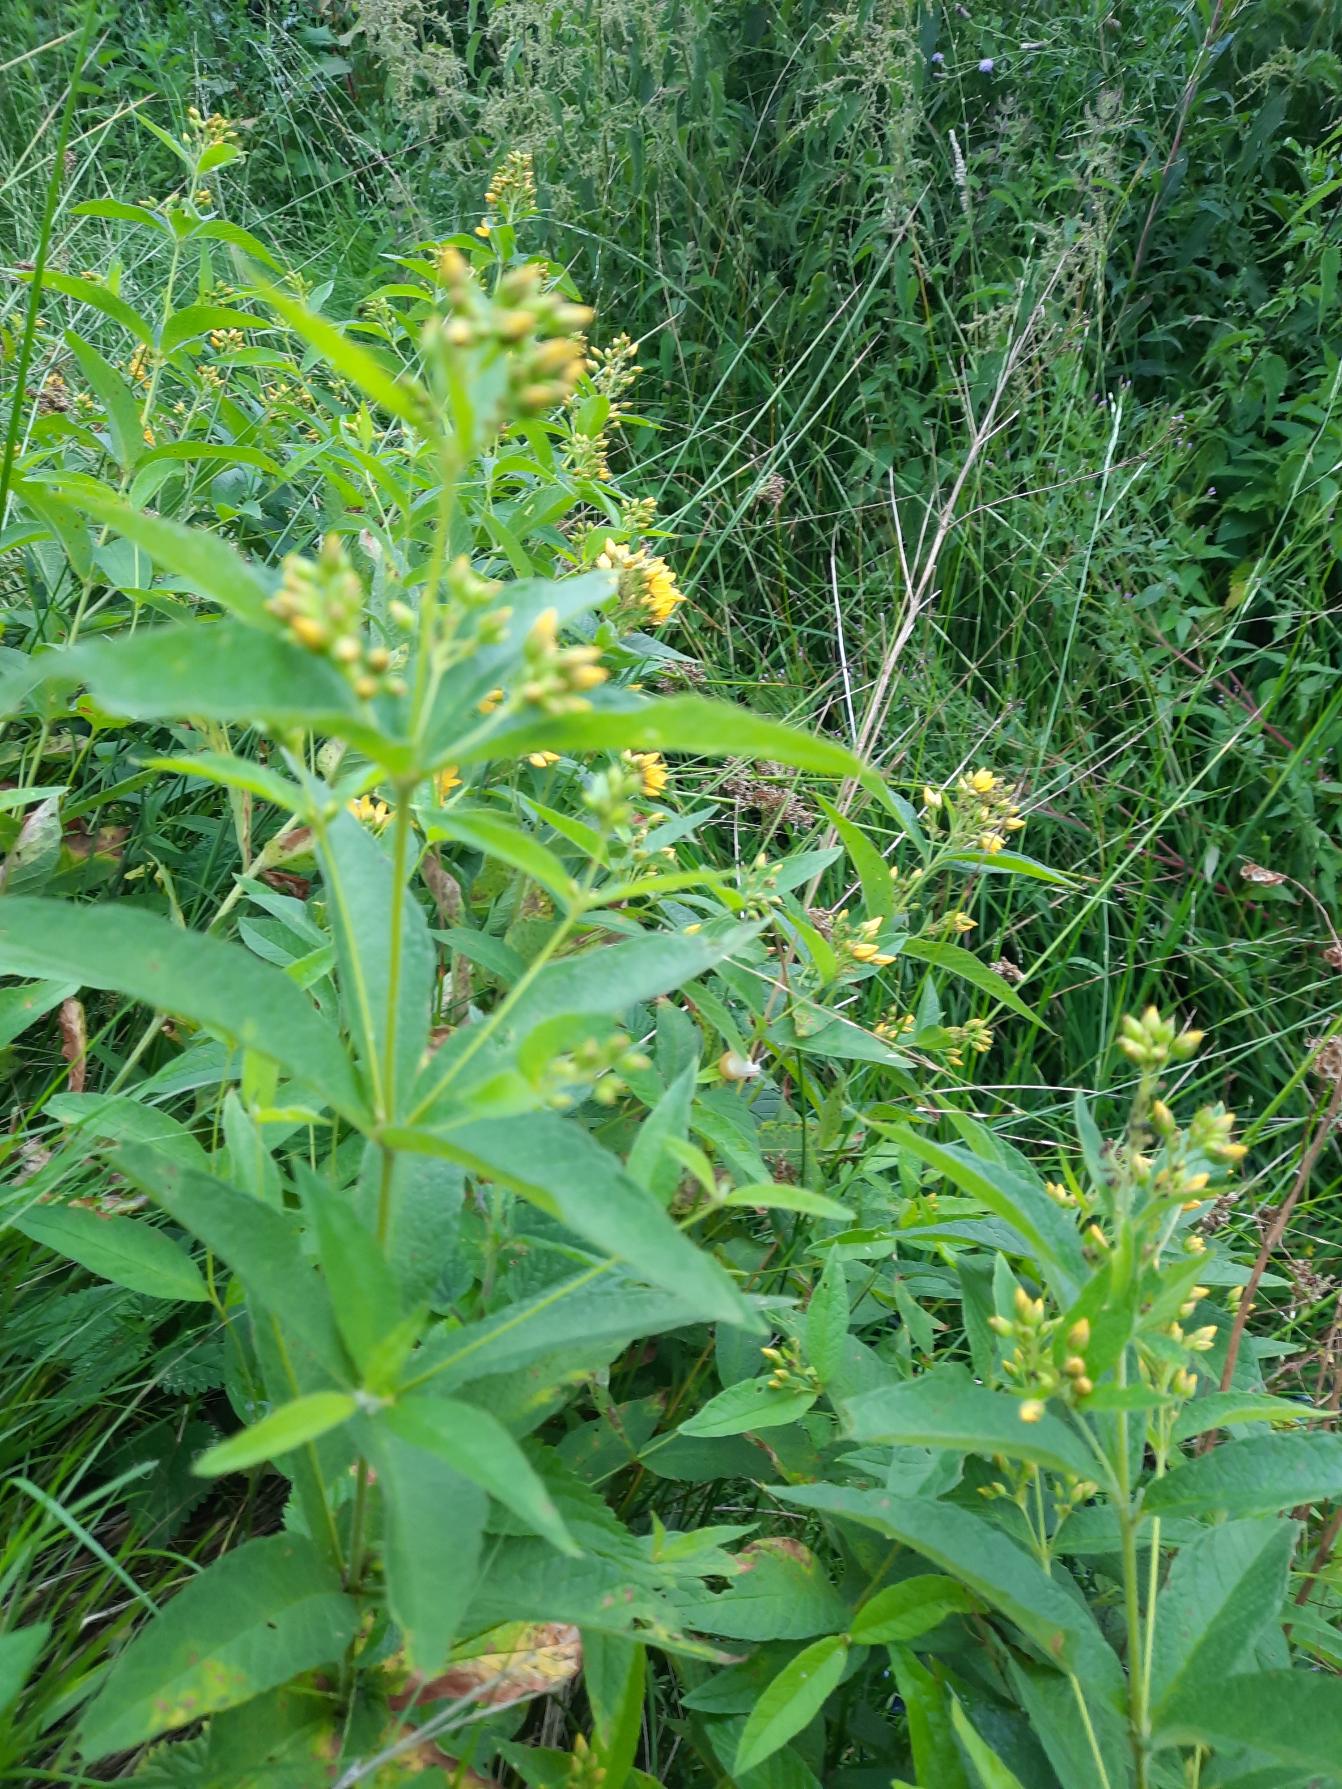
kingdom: Plantae
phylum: Tracheophyta
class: Magnoliopsida
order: Ericales
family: Primulaceae
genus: Lysimachia
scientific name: Lysimachia vulgaris
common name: Almindelig fredløs
